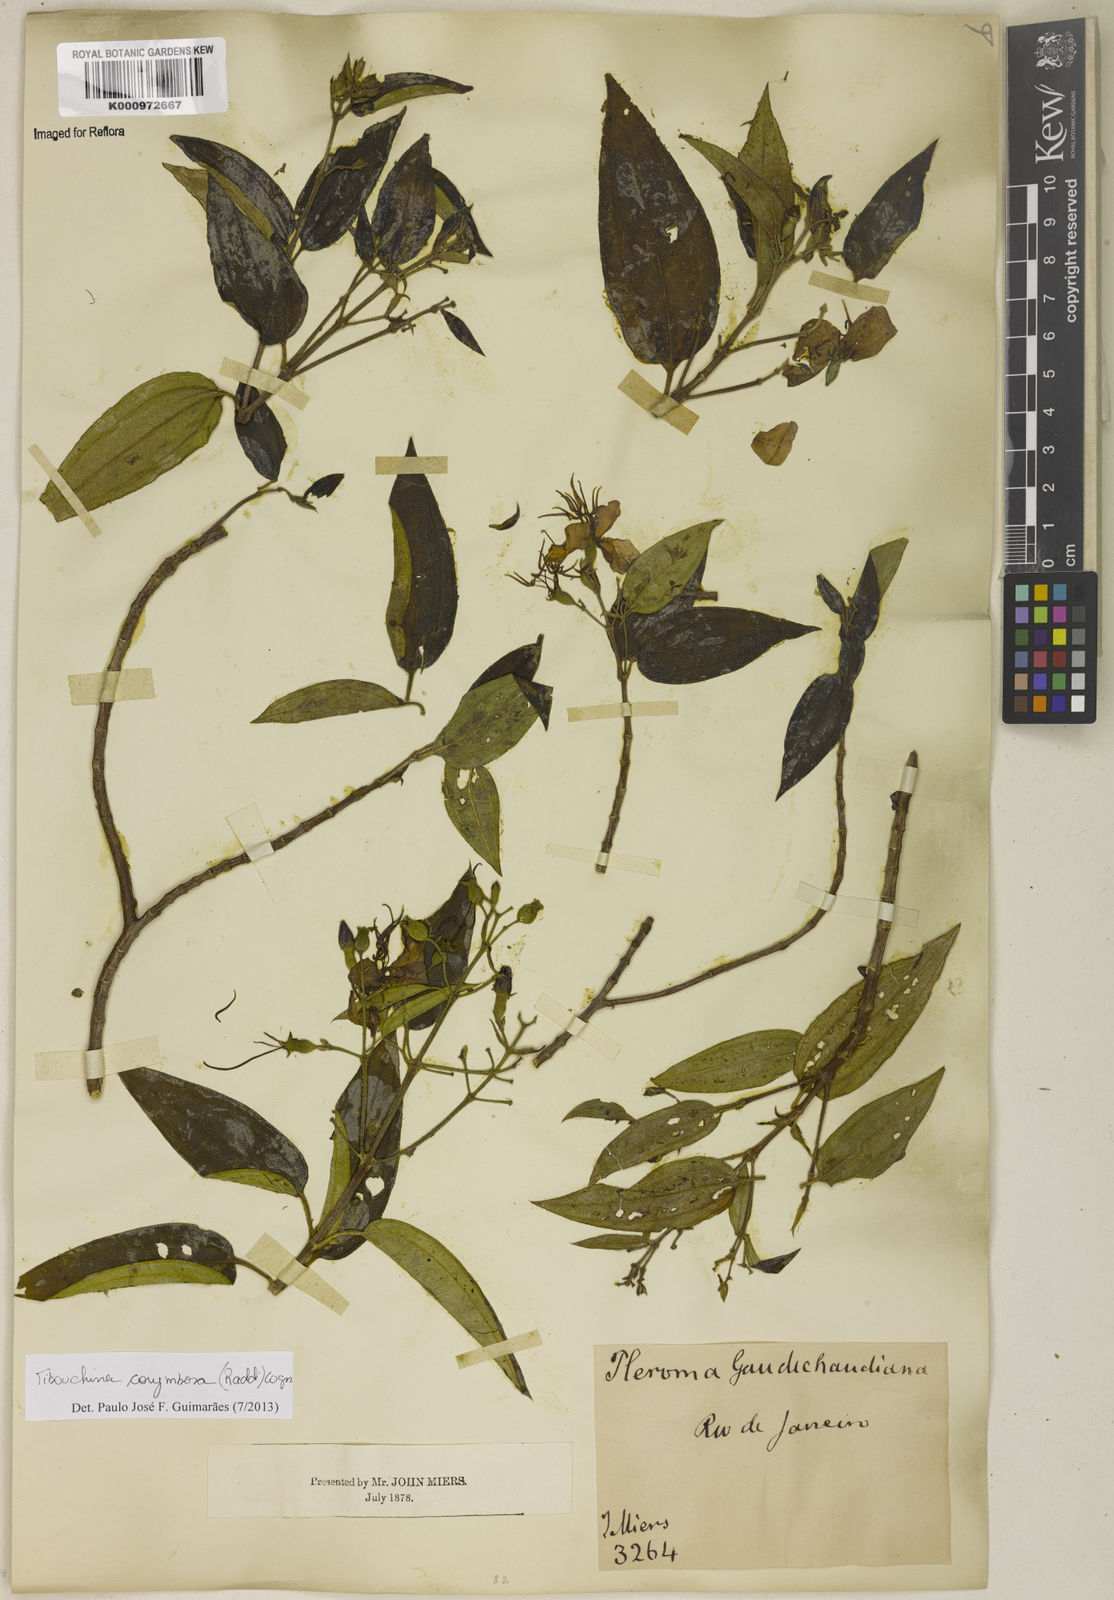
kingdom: Plantae
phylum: Tracheophyta
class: Magnoliopsida
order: Myrtales
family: Melastomataceae
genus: Pleroma
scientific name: Pleroma vimineum
